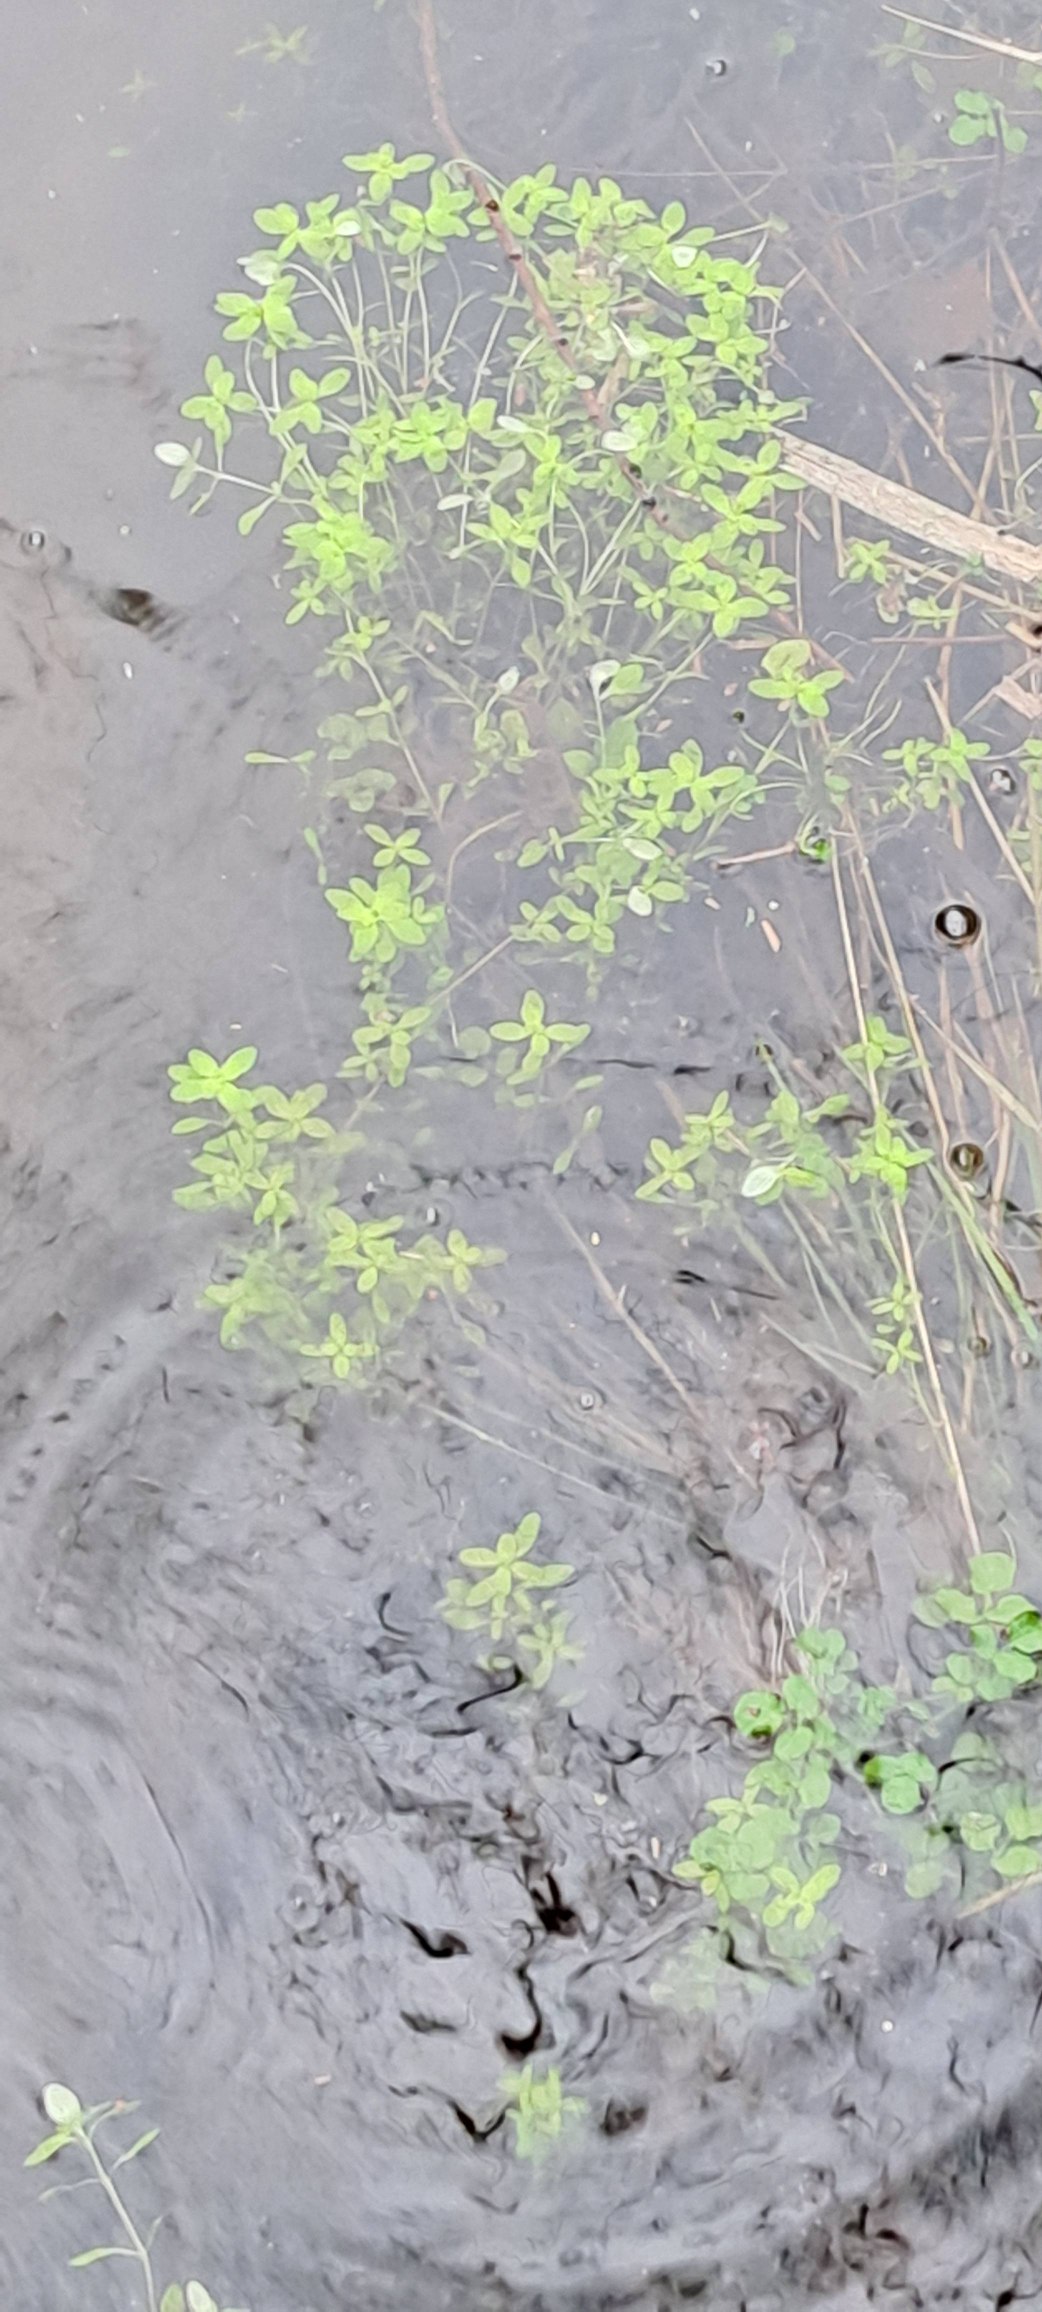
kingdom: Plantae
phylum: Tracheophyta
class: Magnoliopsida
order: Lamiales
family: Plantaginaceae
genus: Callitriche
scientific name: Callitriche
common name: Vandstjerneslægten
